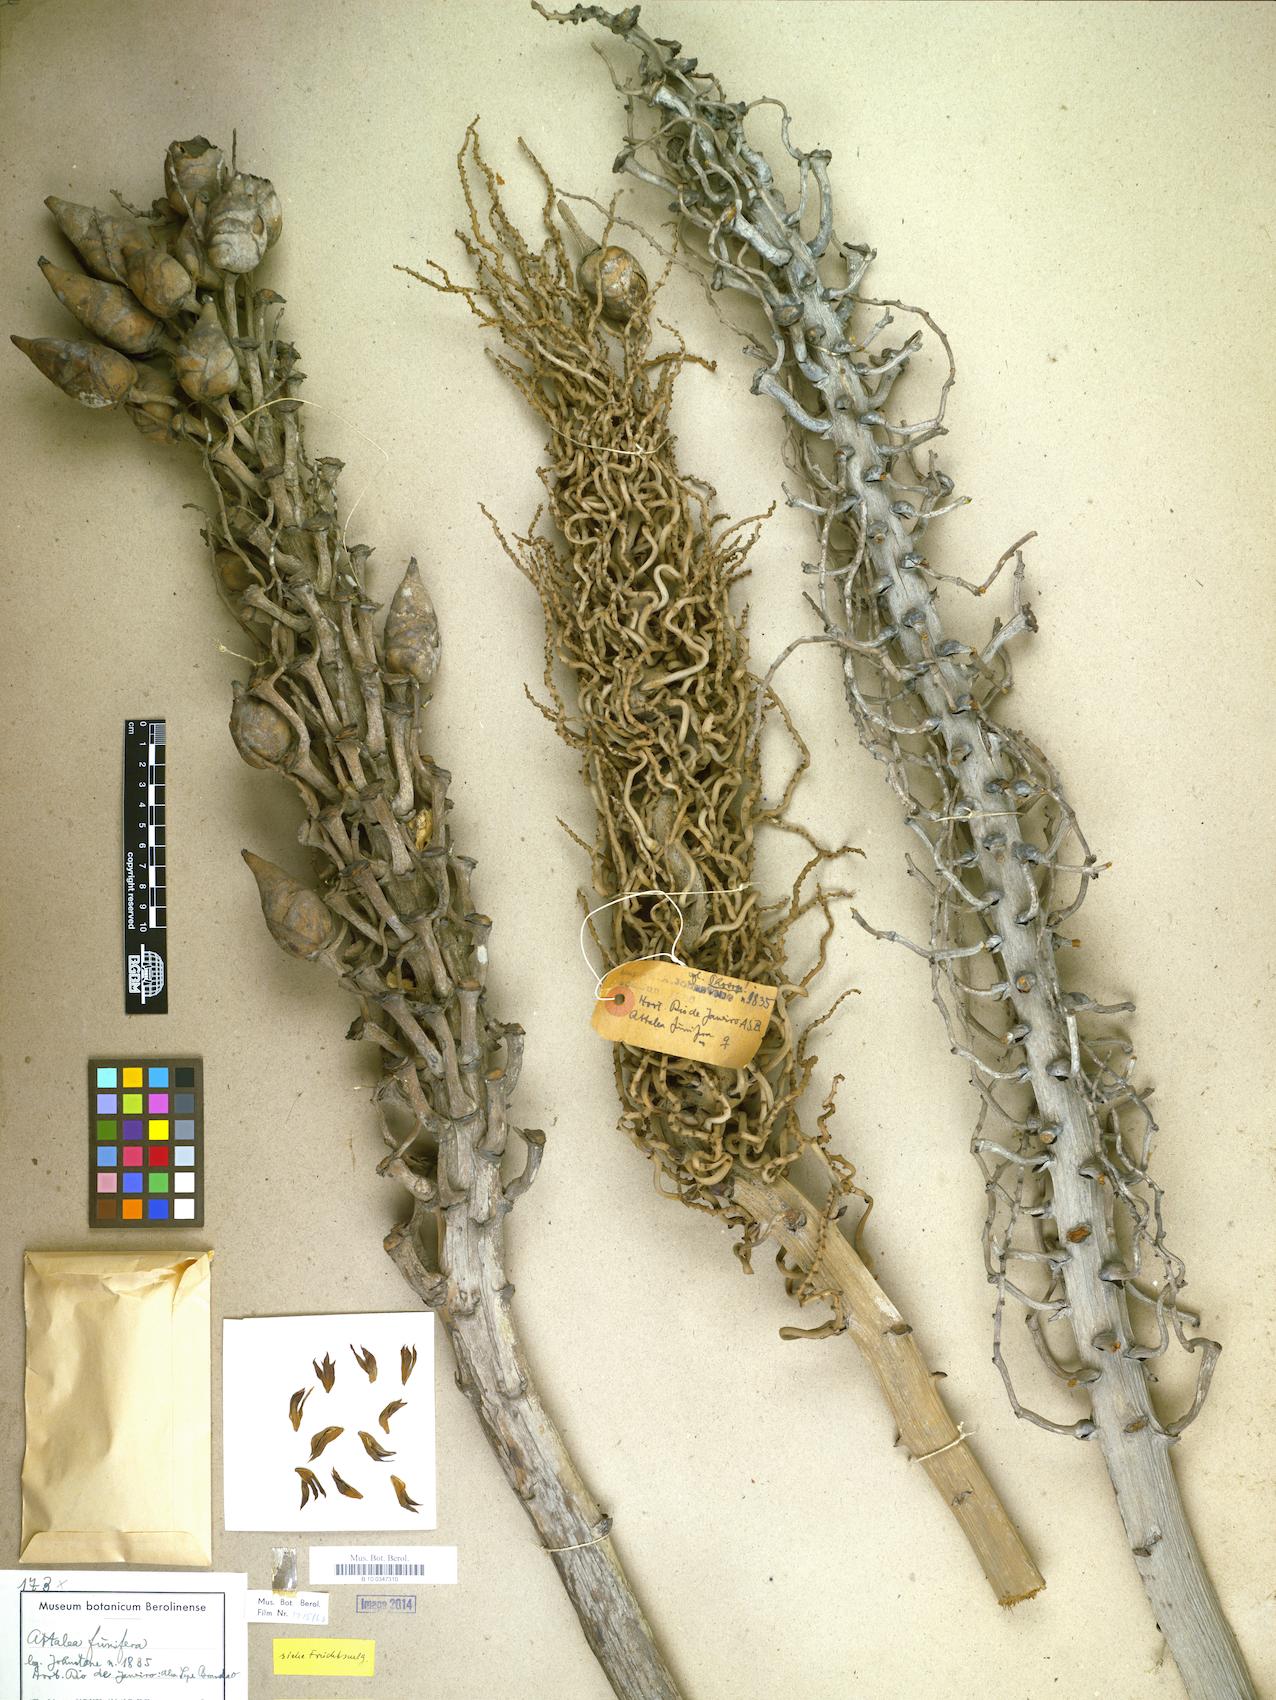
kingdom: Plantae
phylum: Tracheophyta
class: Liliopsida
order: Arecales
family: Arecaceae
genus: Attalea
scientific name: Attalea funifera
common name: Piassava palm
